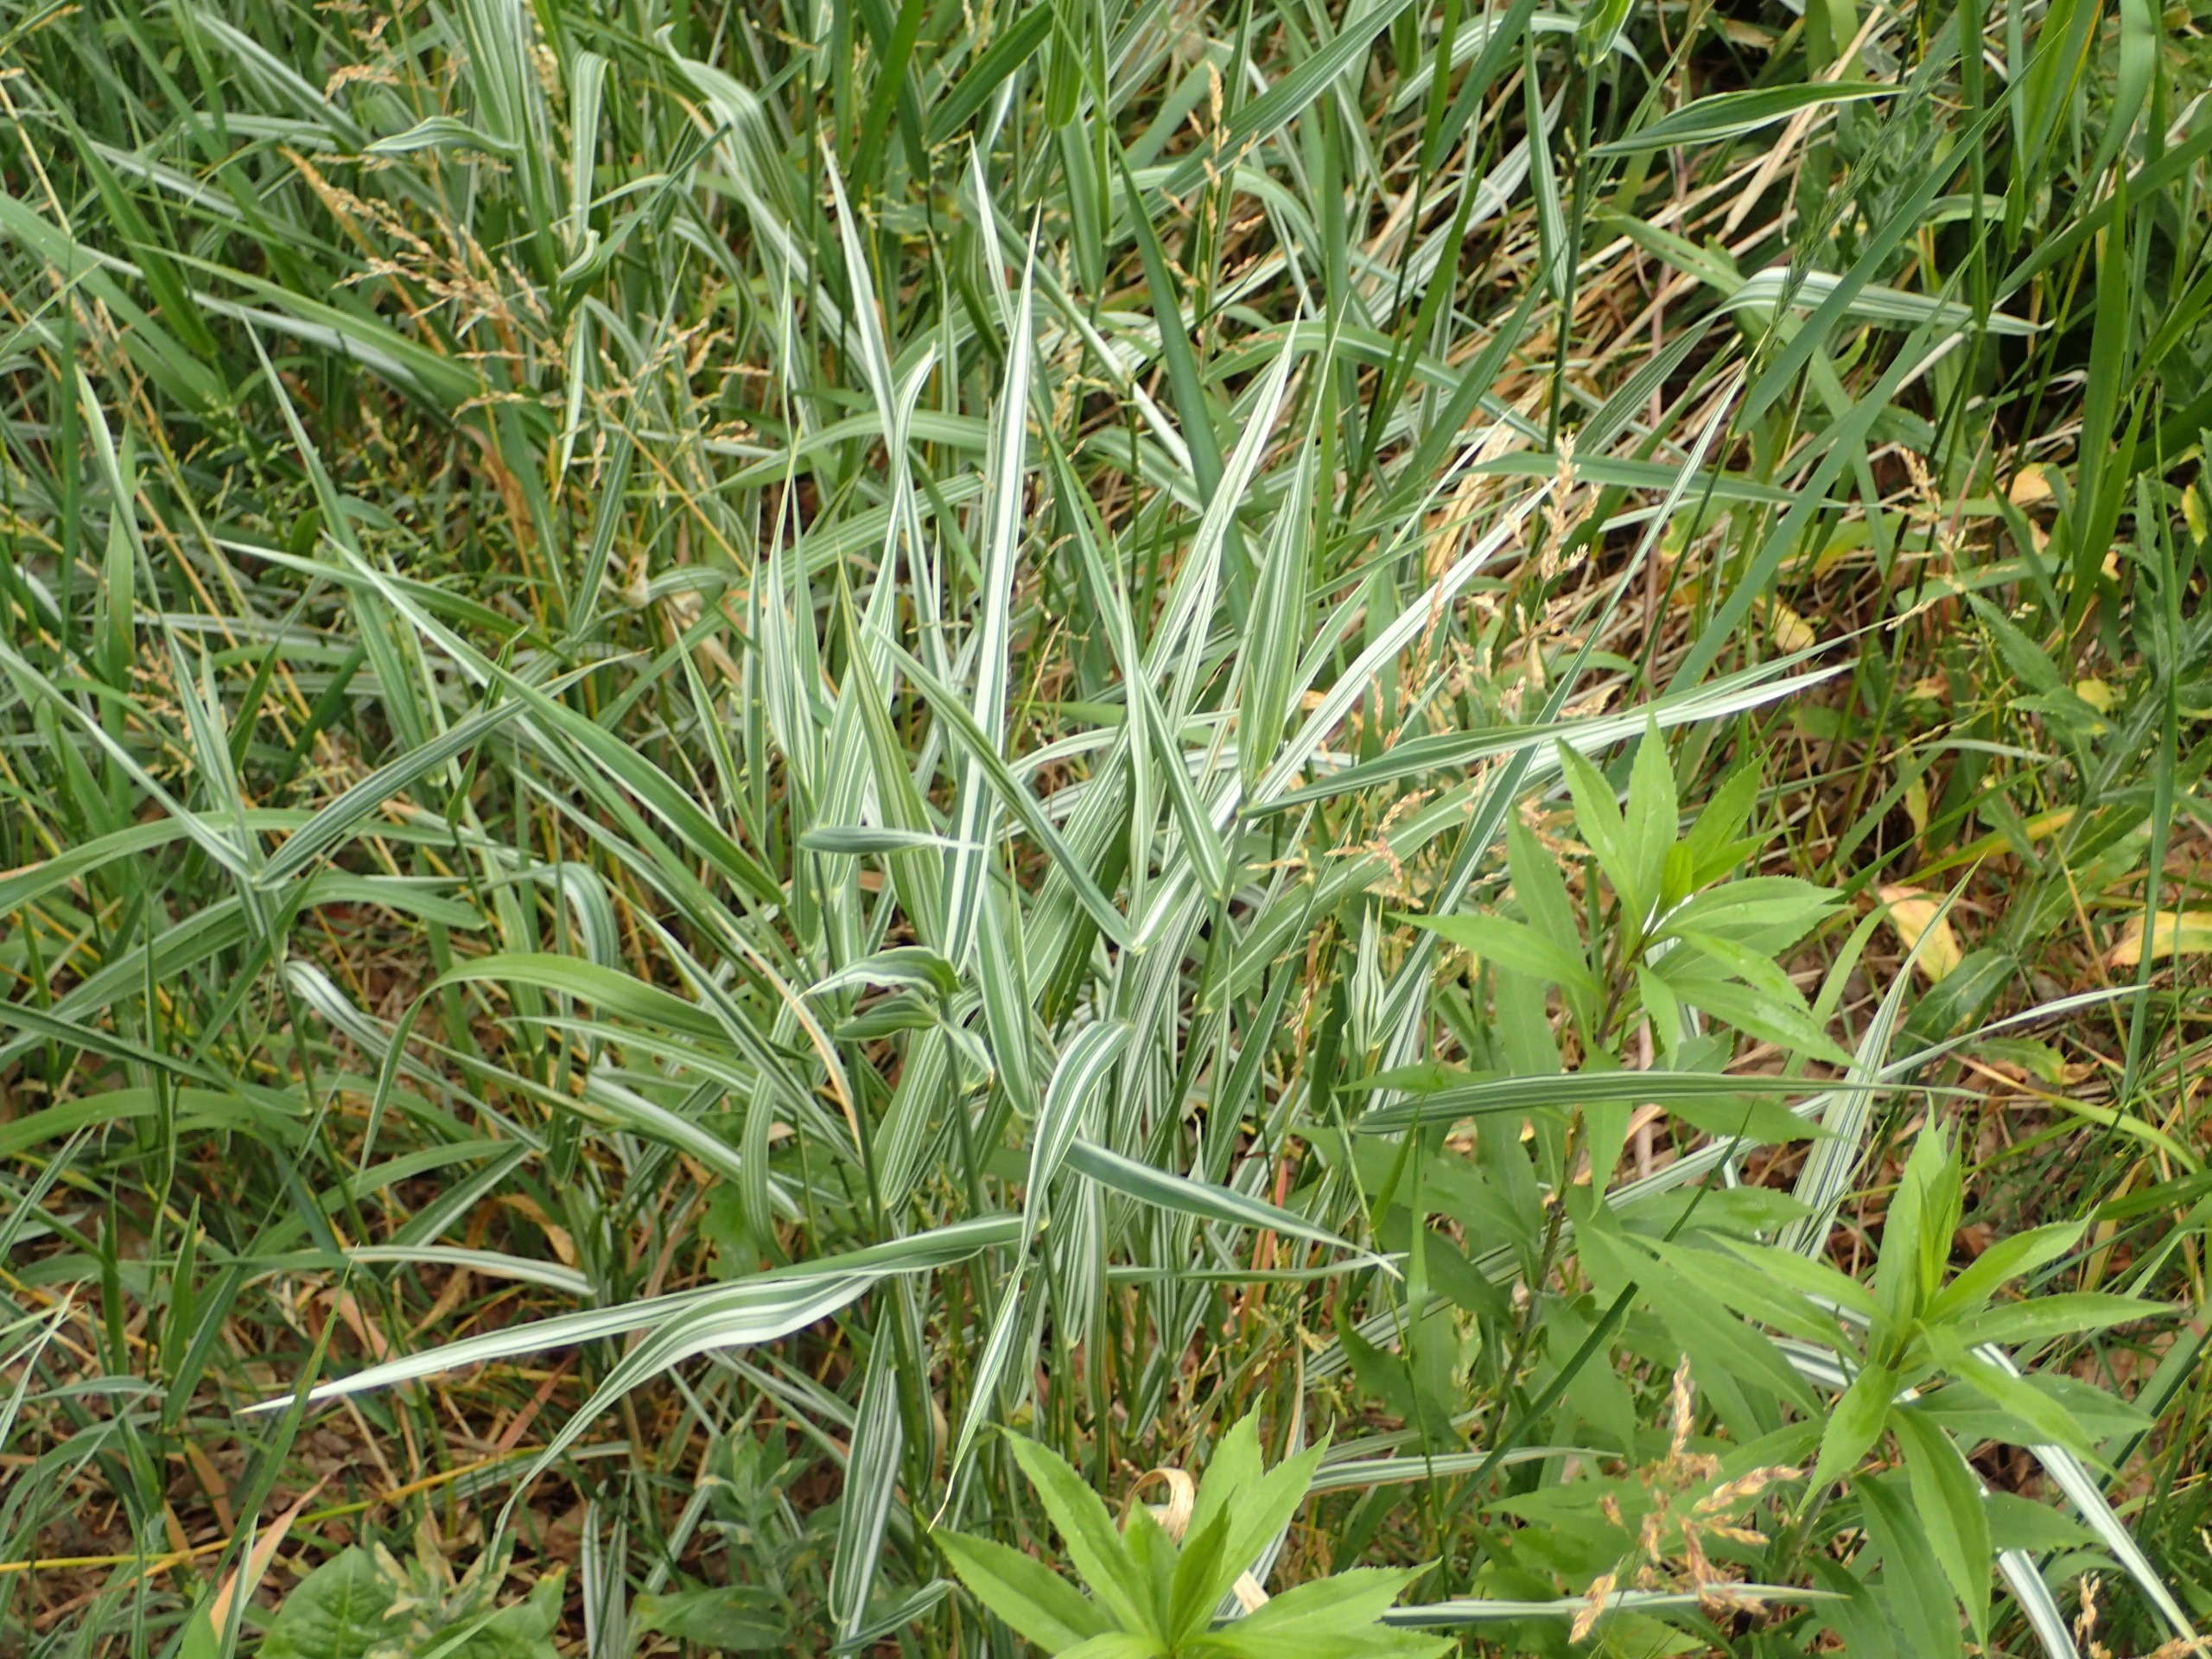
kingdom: Plantae
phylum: Tracheophyta
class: Liliopsida
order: Poales
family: Poaceae
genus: Phalaris
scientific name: Phalaris arundinacea
